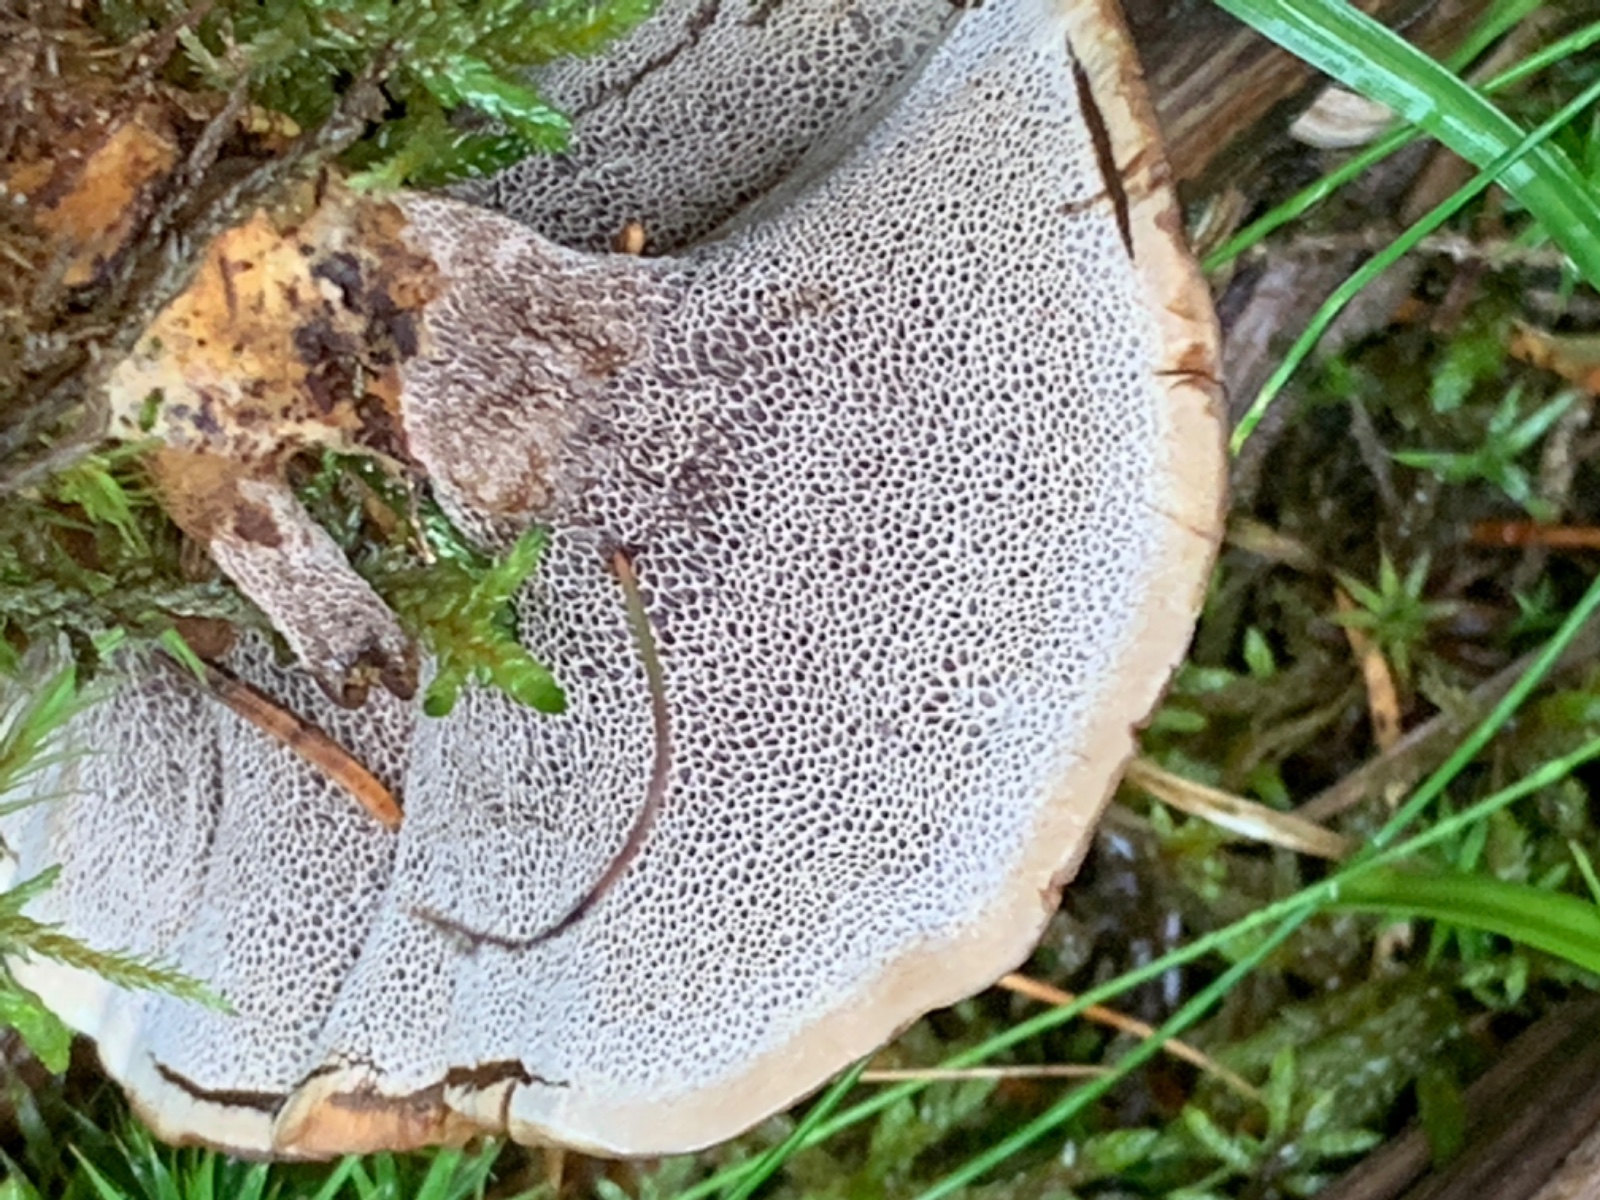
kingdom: Fungi
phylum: Basidiomycota
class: Agaricomycetes
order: Hymenochaetales
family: Hymenochaetaceae
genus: Coltricia
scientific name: Coltricia perennis
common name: almindelig sandporesvamp
